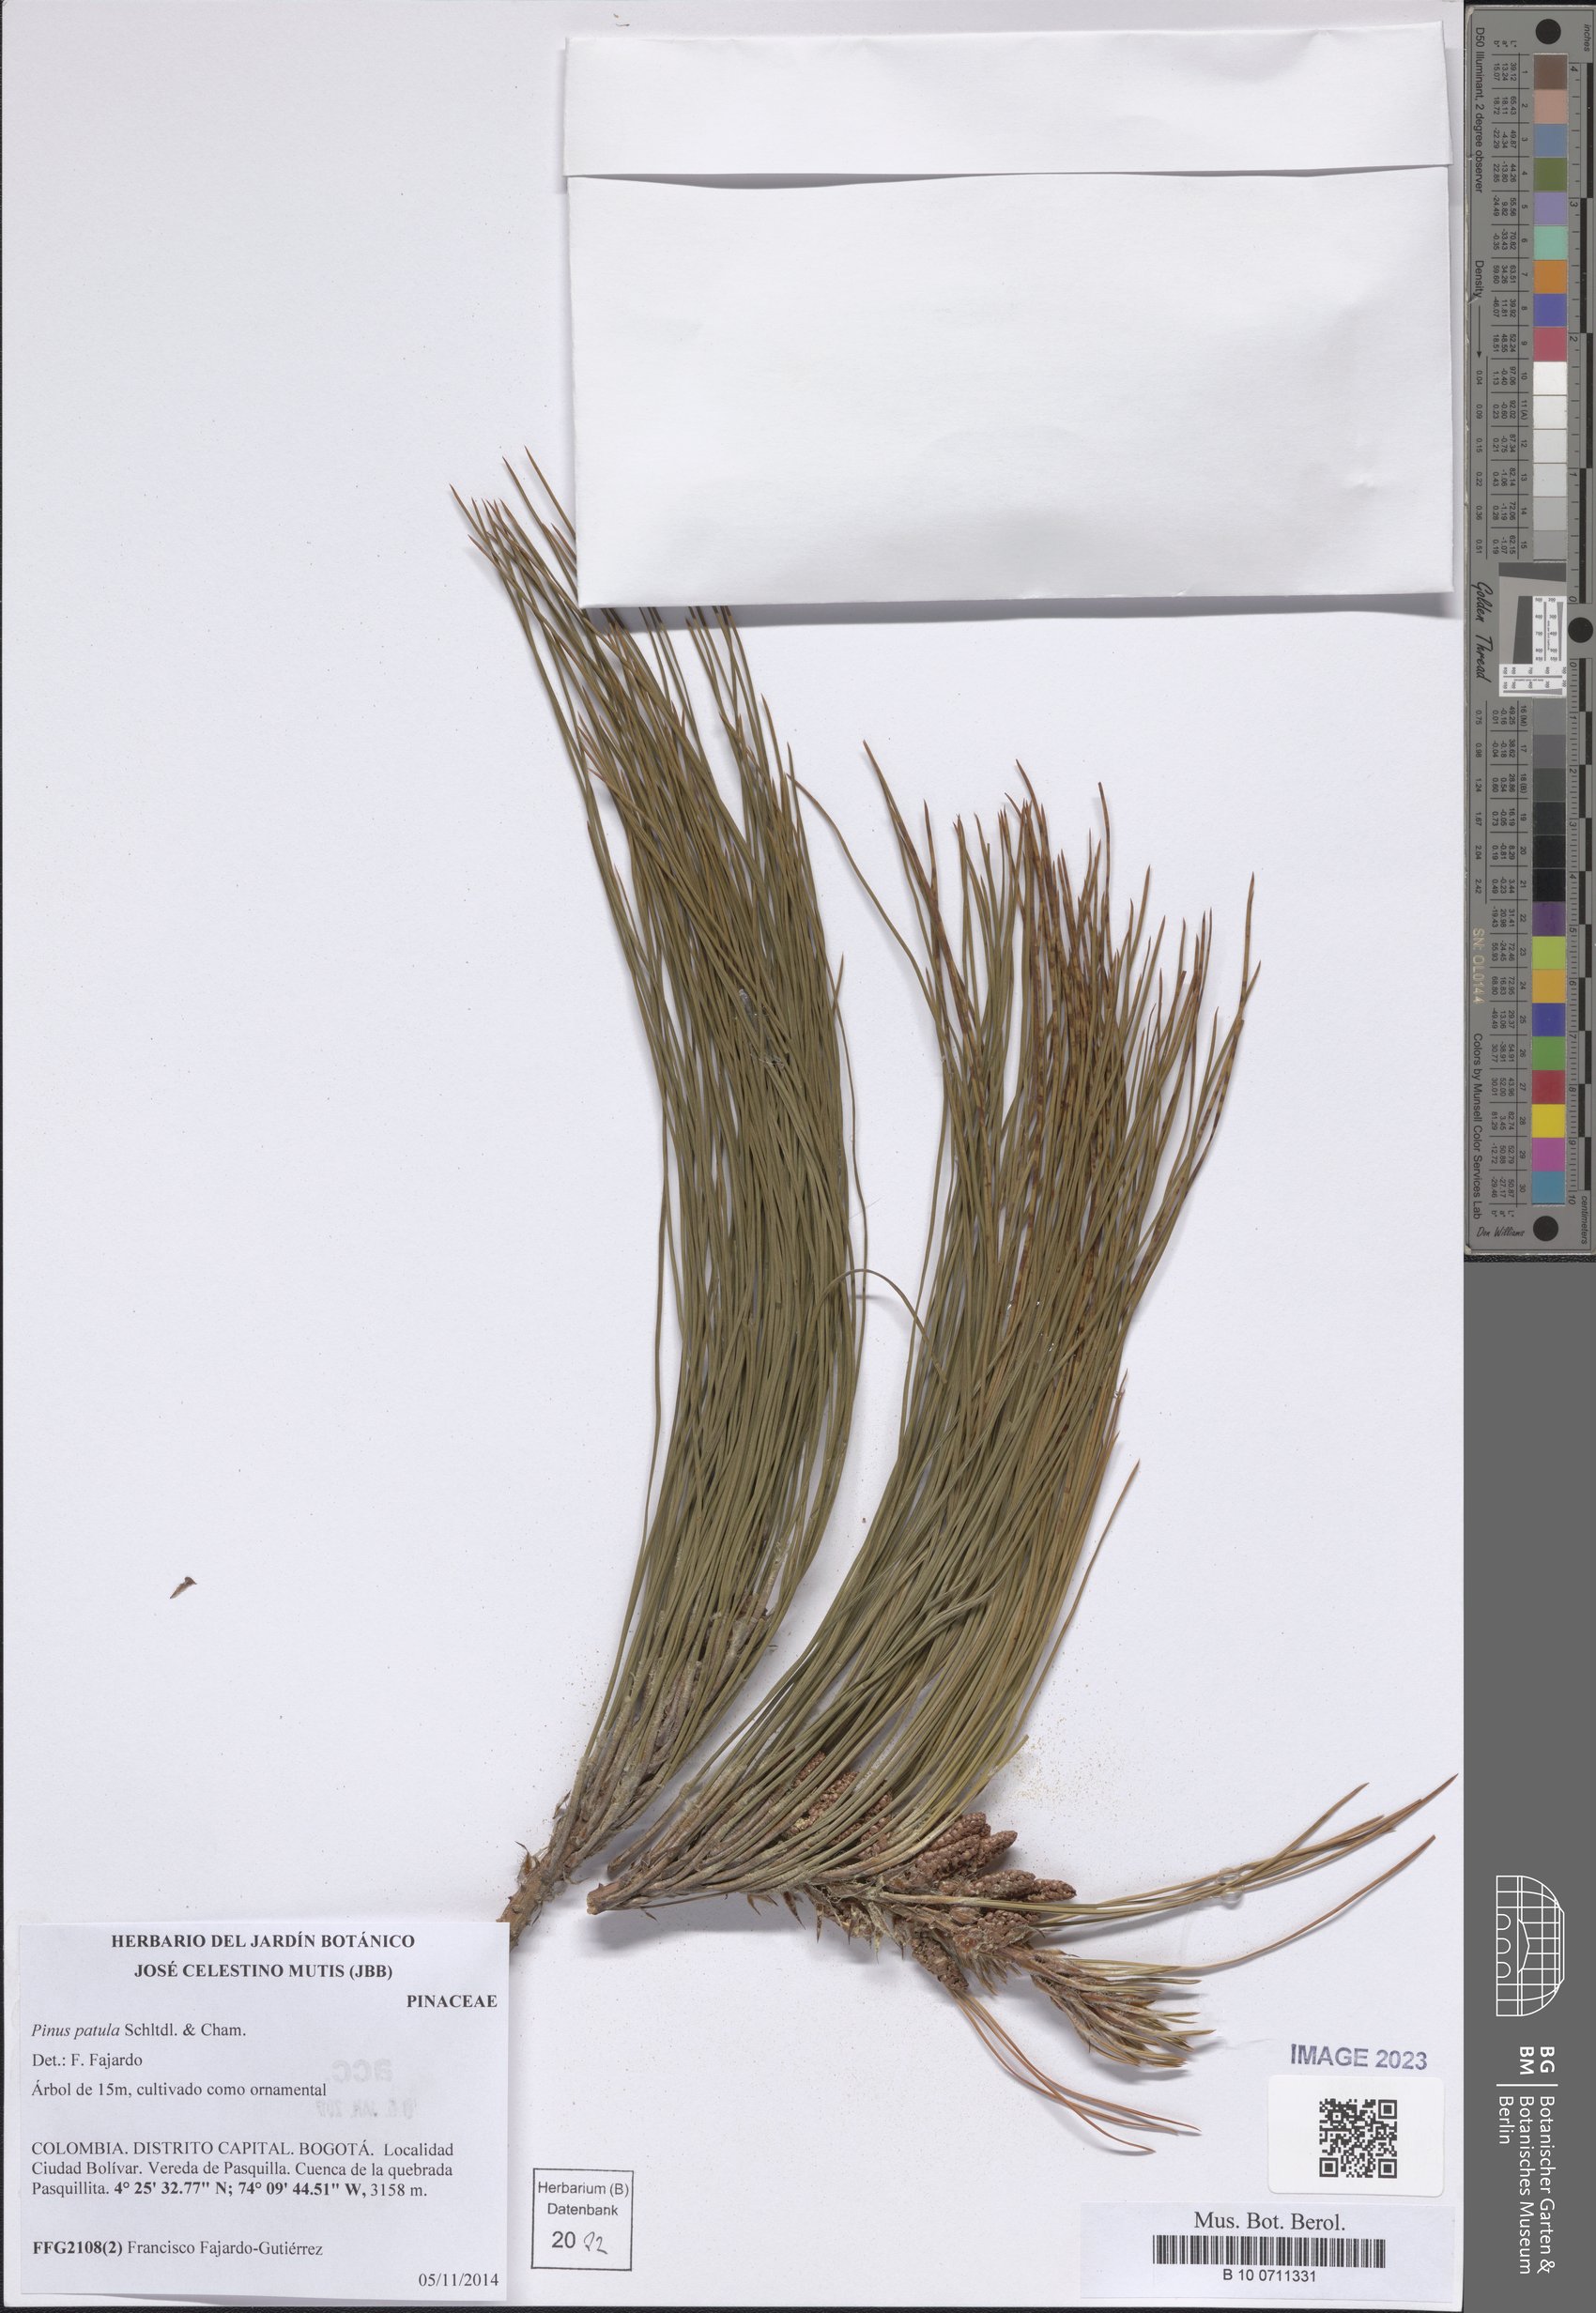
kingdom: Plantae
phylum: Tracheophyta
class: Pinopsida
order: Pinales
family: Pinaceae
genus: Pinus
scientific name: Pinus patula
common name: Mexican weeping pine
